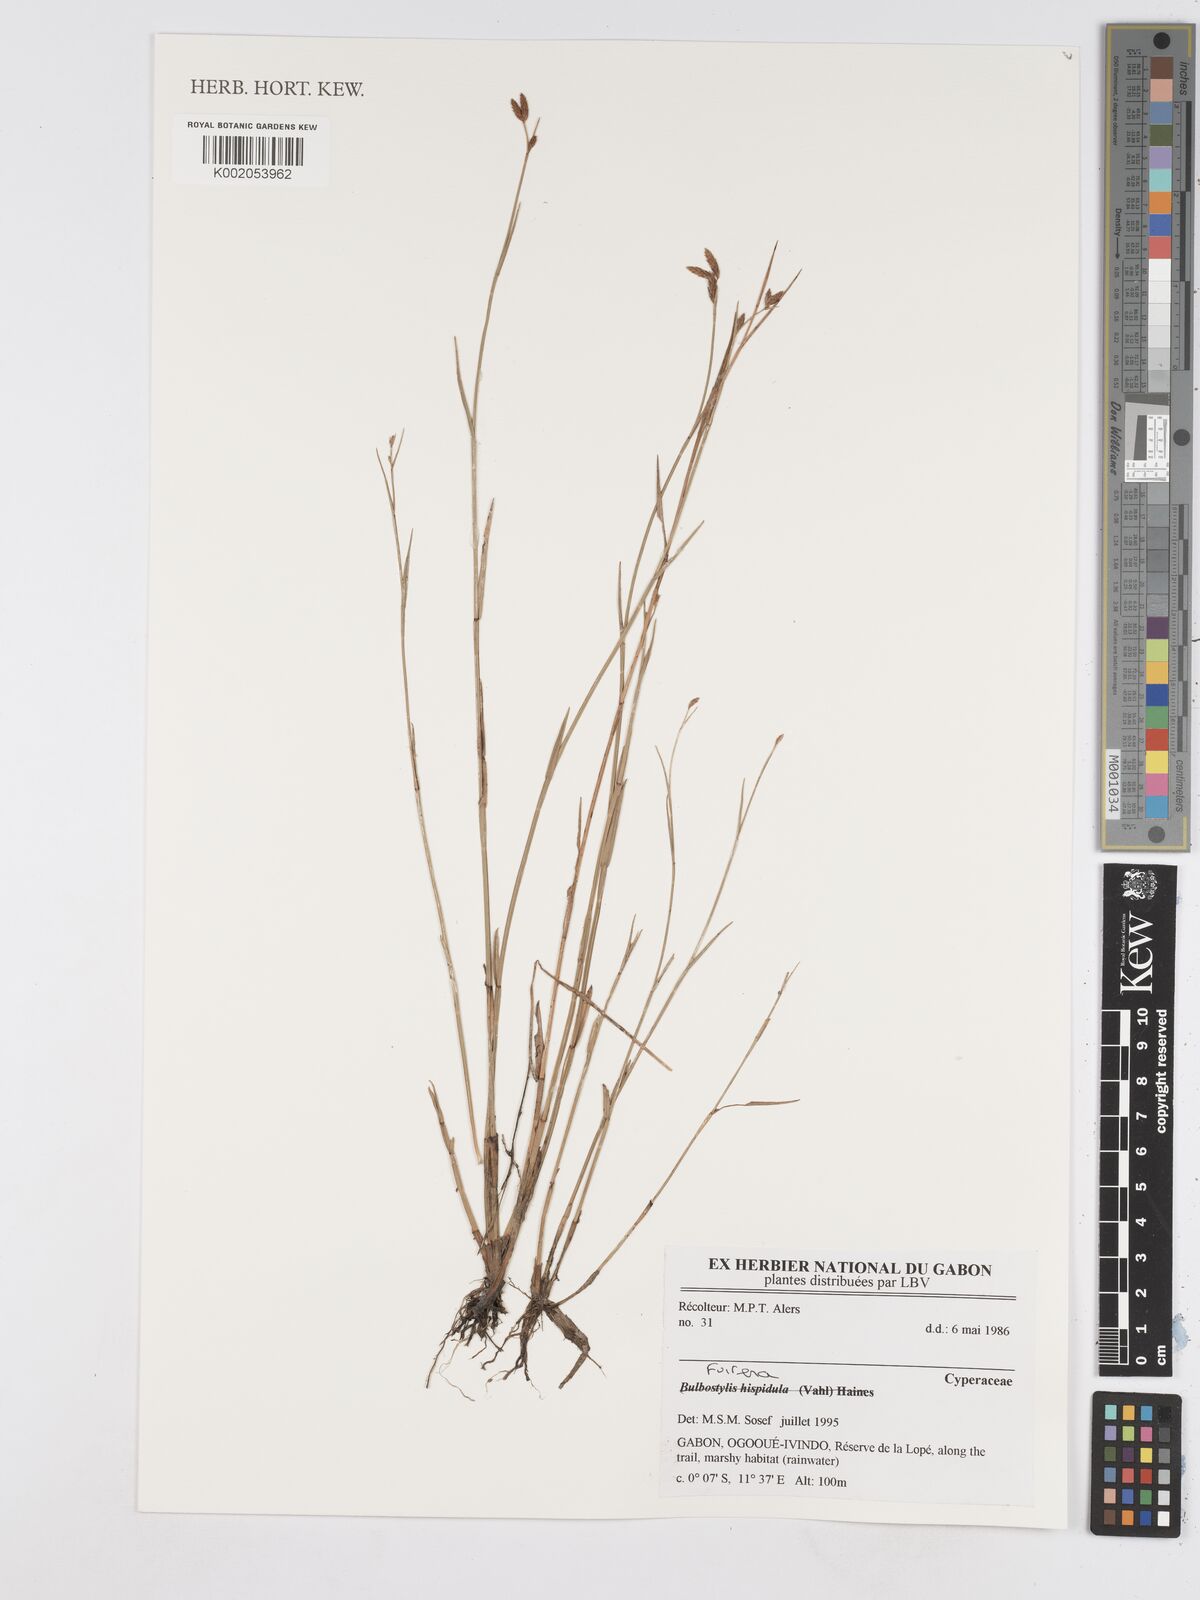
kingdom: Plantae
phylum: Tracheophyta
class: Liliopsida
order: Poales
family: Cyperaceae
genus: Fuirena
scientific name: Fuirena
